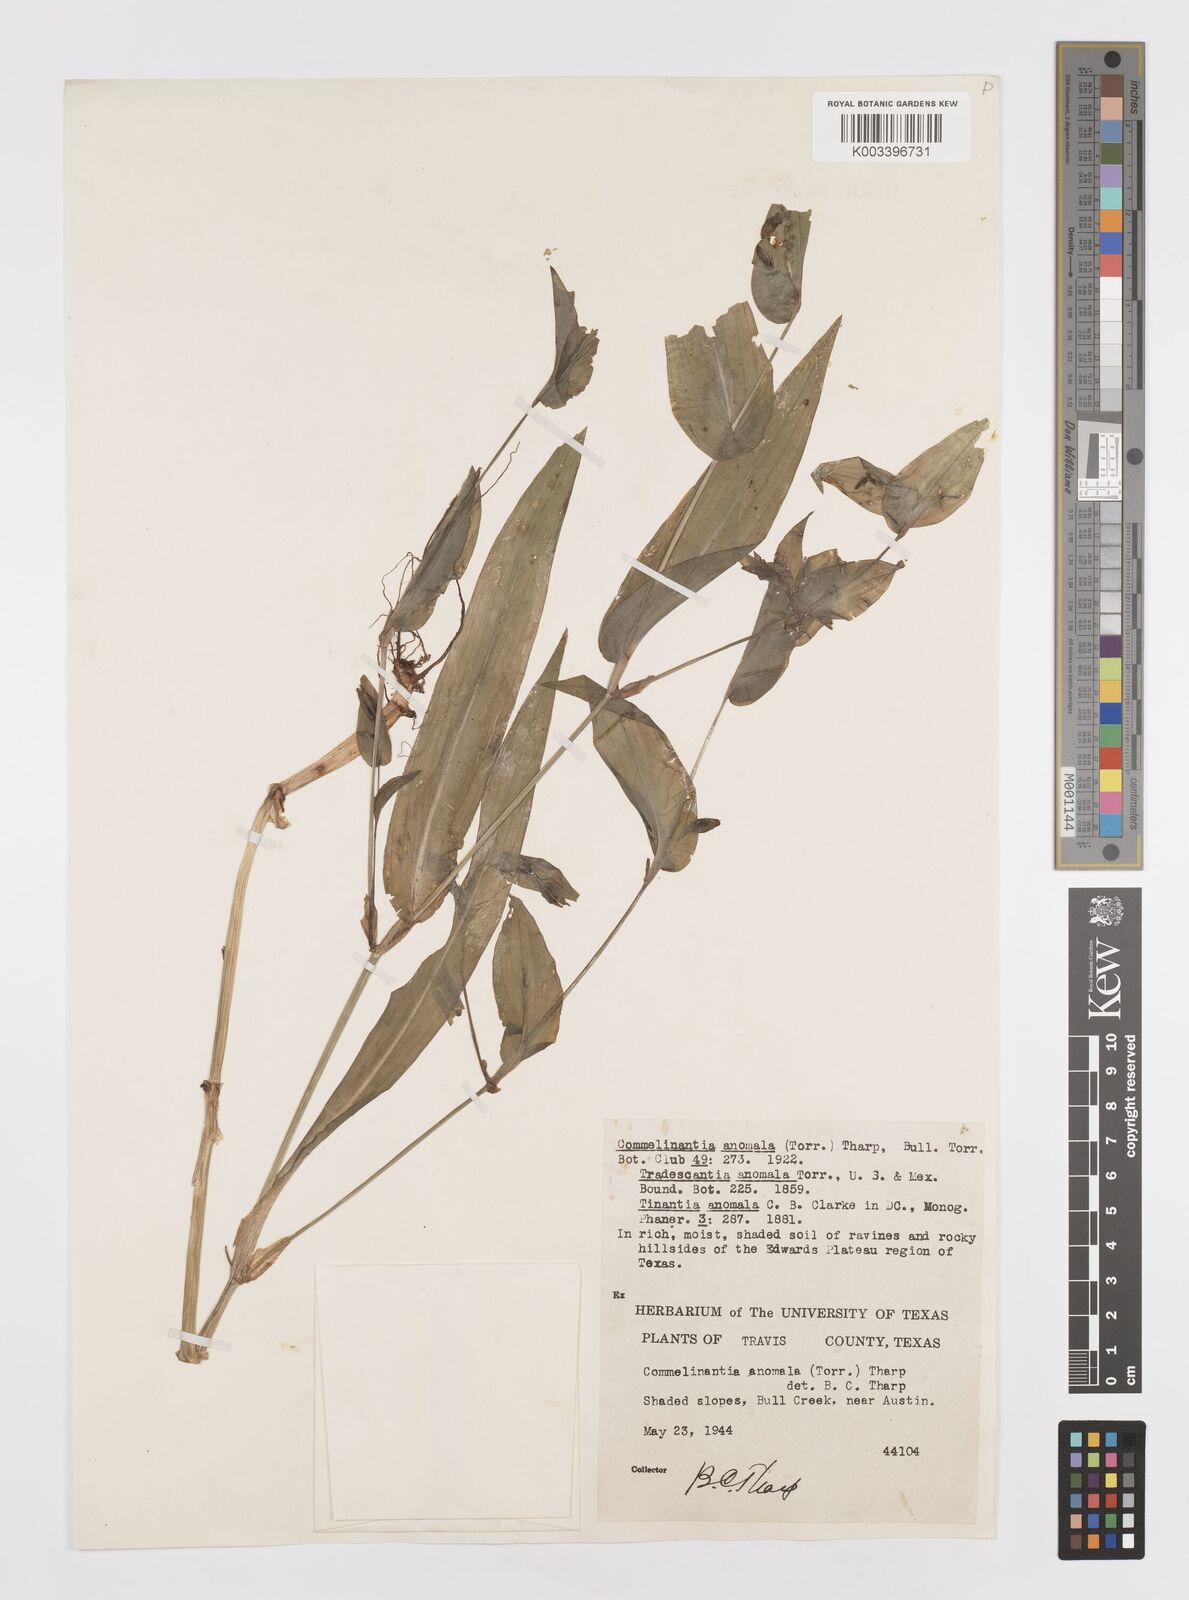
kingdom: Plantae
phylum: Tracheophyta
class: Liliopsida
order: Commelinales
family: Commelinaceae
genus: Tinantia
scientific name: Tinantia anomala
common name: False dayflower
